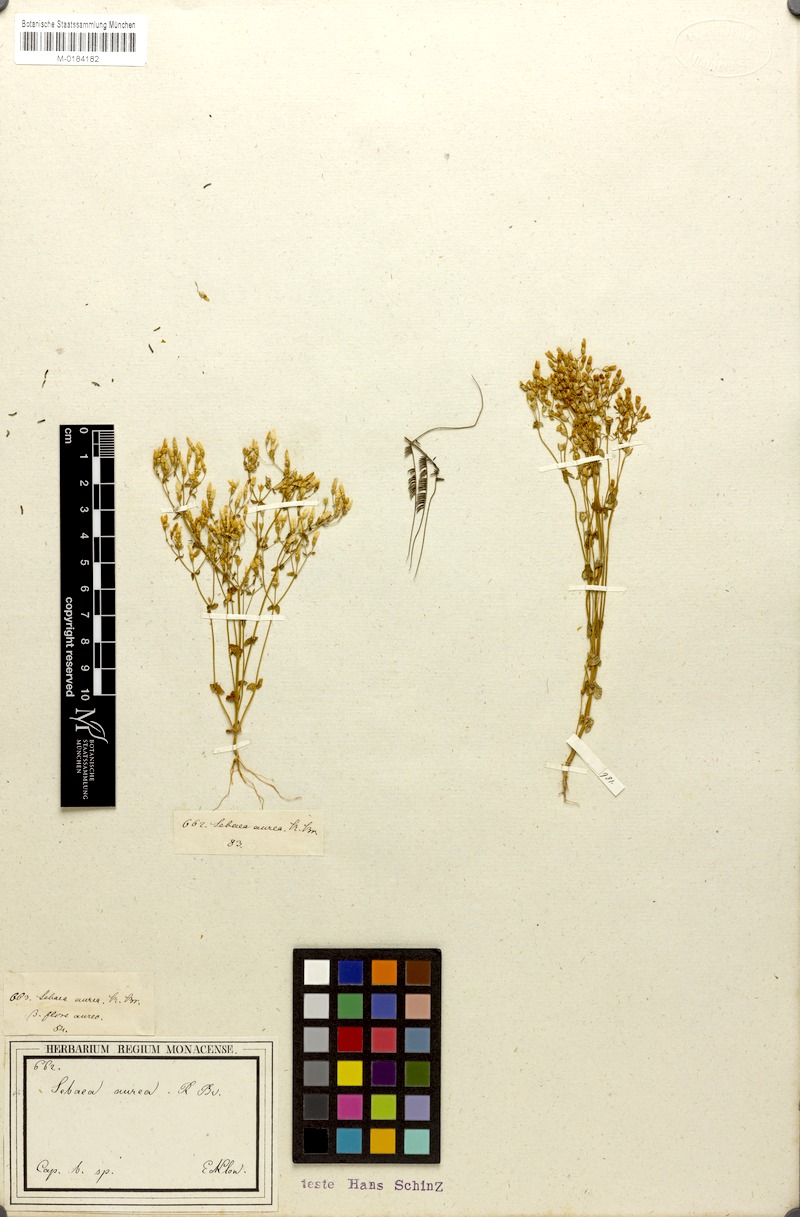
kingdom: Plantae
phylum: Tracheophyta
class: Magnoliopsida
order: Gentianales
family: Gentianaceae
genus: Sebaea
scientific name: Sebaea aurea
